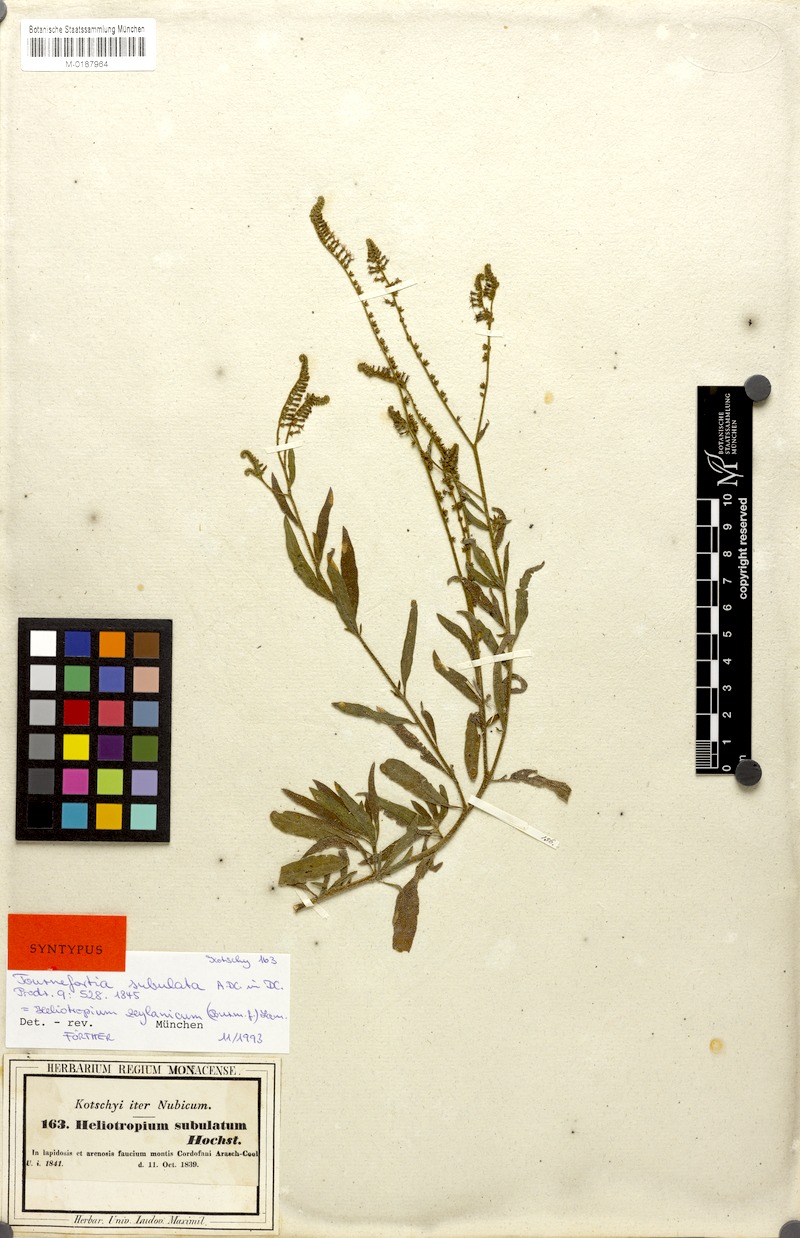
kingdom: Plantae
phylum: Tracheophyta
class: Magnoliopsida
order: Boraginales
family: Heliotropiaceae
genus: Heliotropium
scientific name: Heliotropium zeylanicum
